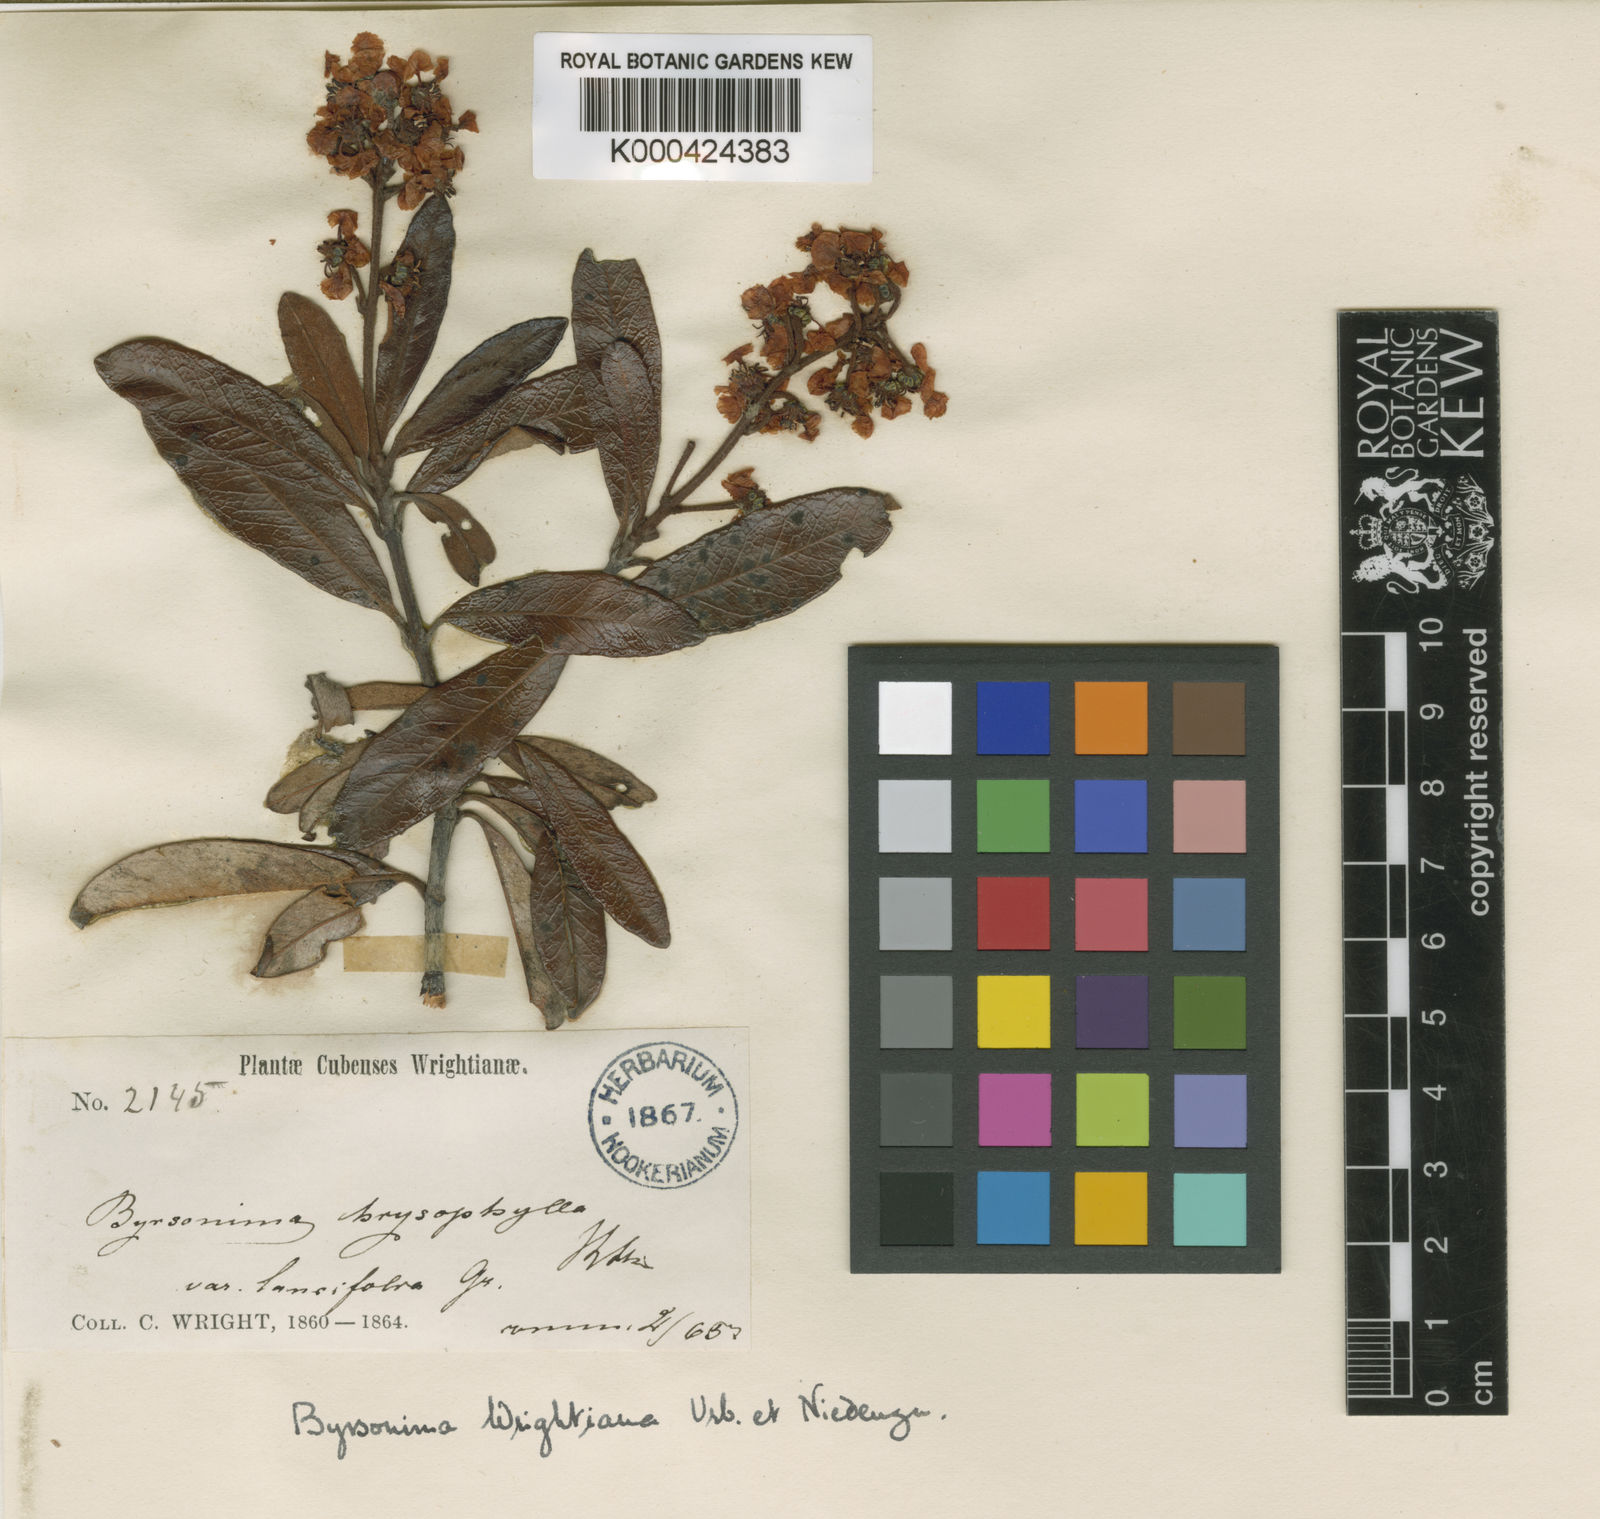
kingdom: Plantae
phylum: Tracheophyta
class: Magnoliopsida
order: Malpighiales
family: Malpighiaceae
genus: Byrsonima
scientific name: Byrsonima wrightiana
